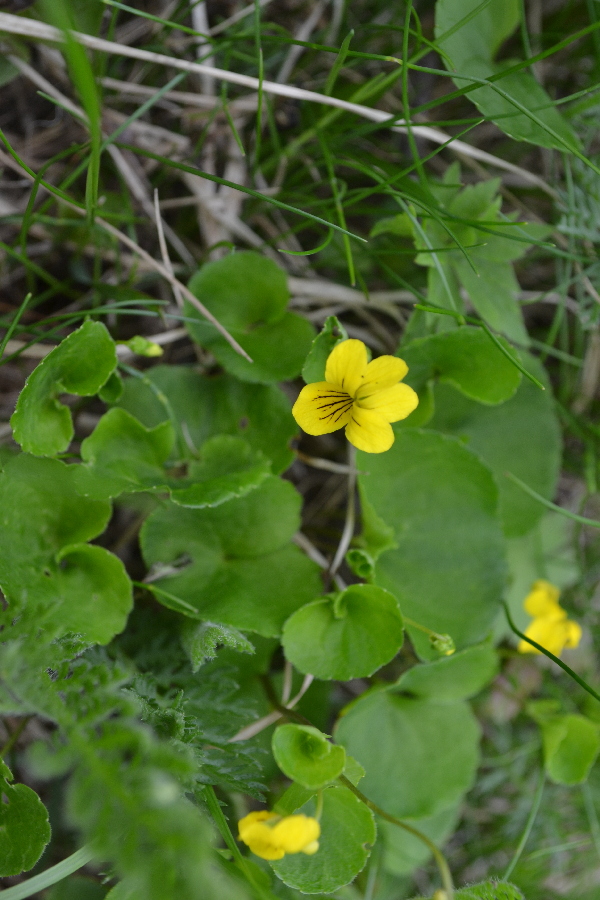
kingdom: Plantae
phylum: Tracheophyta
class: Magnoliopsida
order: Malpighiales
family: Violaceae
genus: Viola
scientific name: Viola biflora
